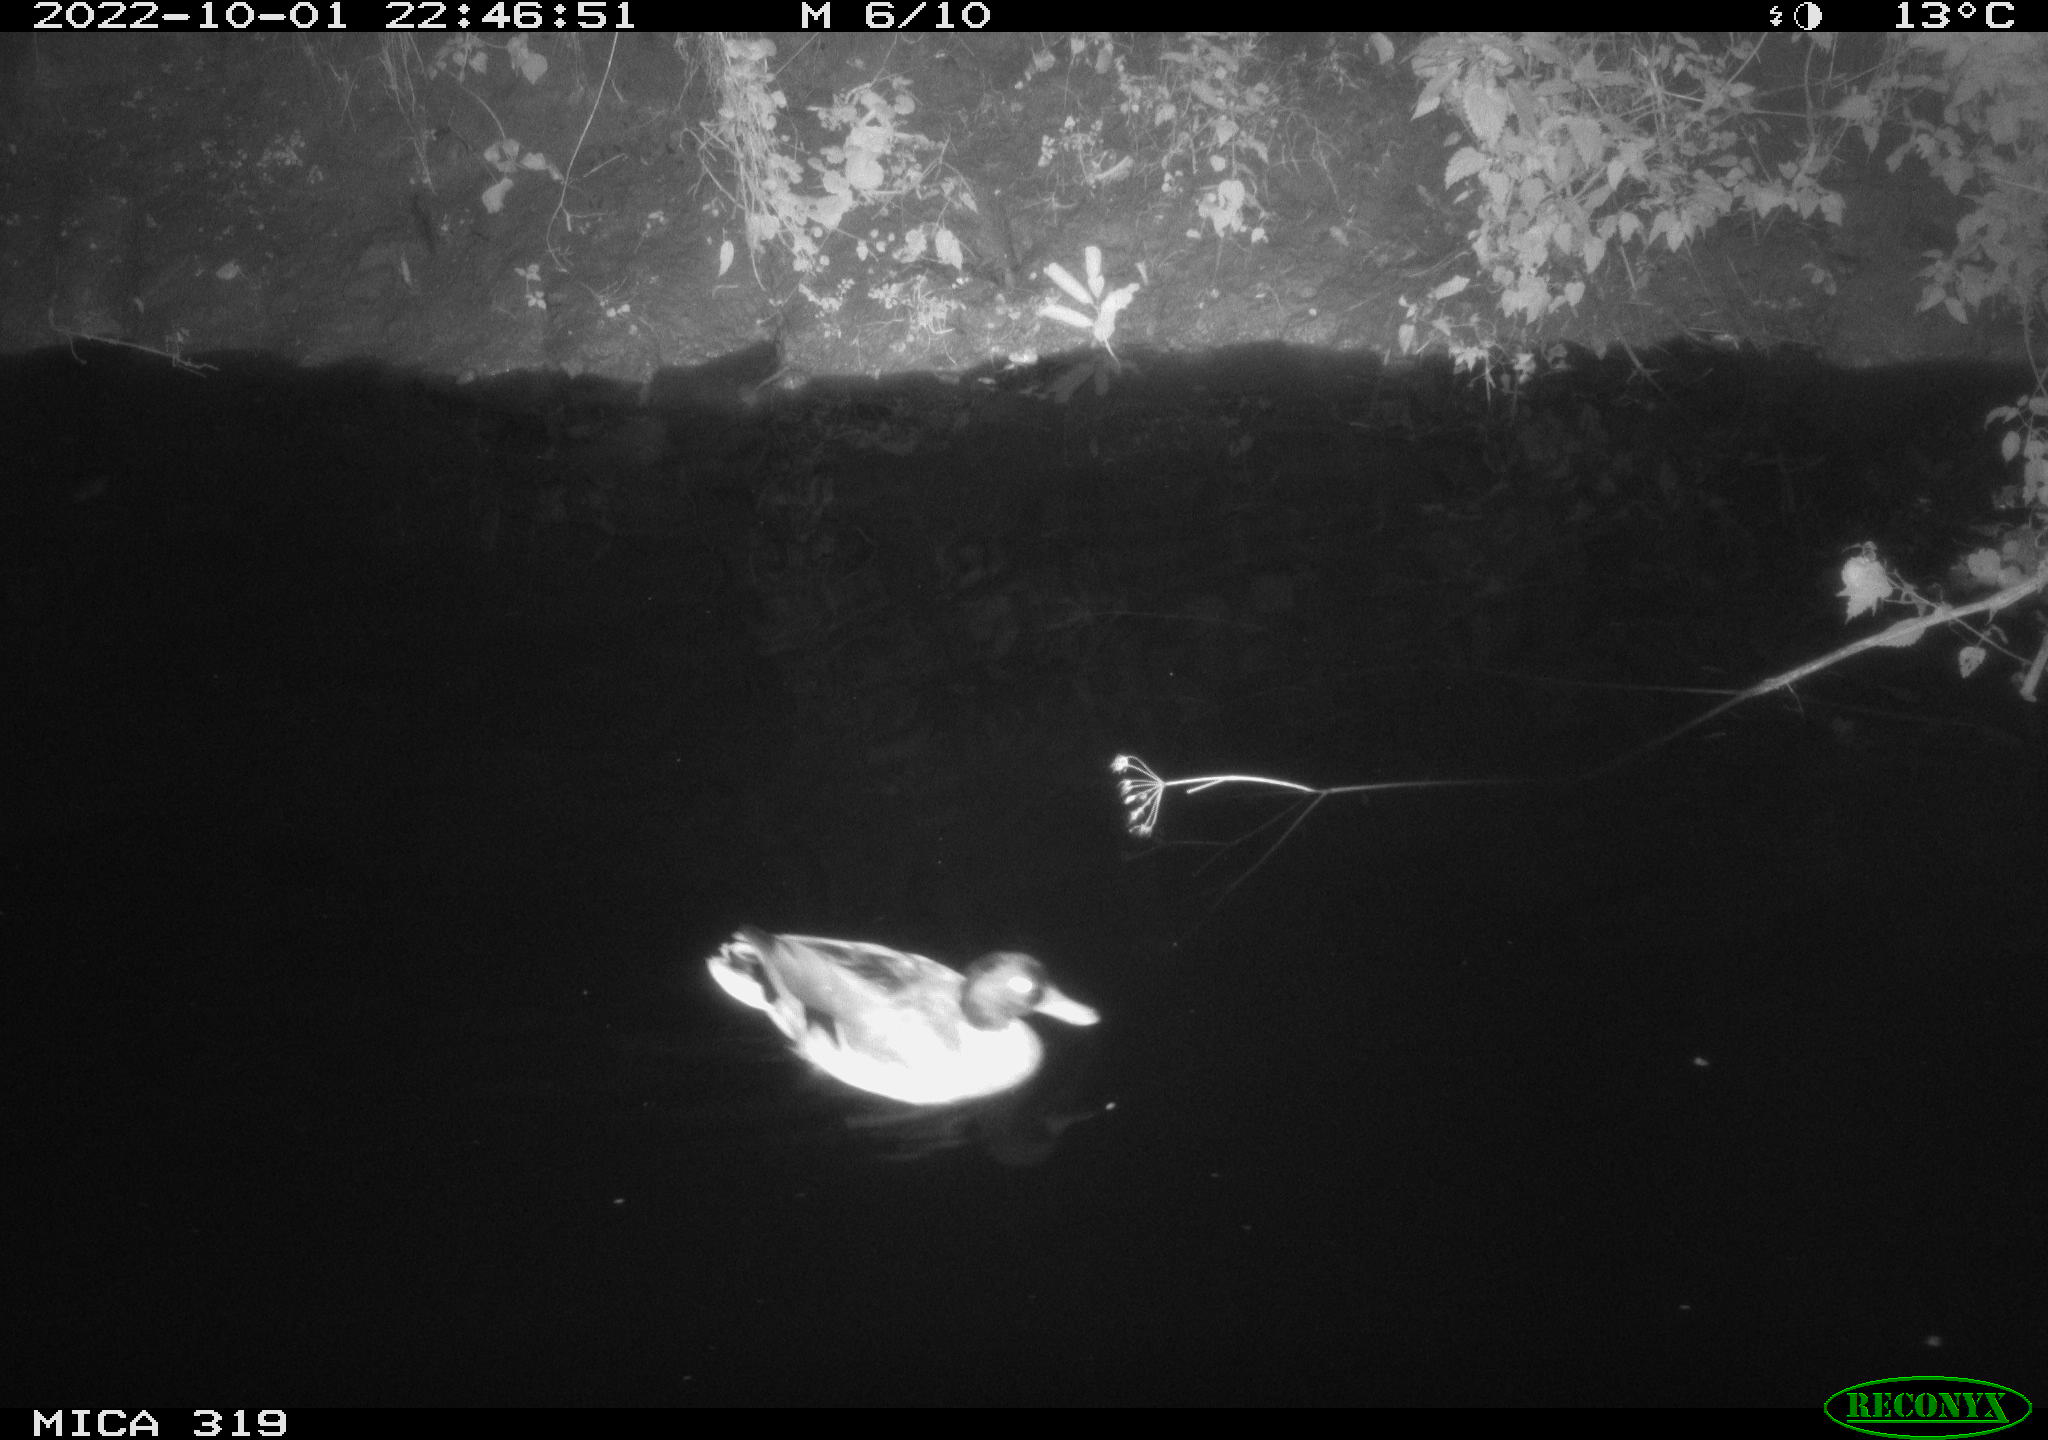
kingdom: Animalia
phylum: Chordata
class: Aves
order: Anseriformes
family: Anatidae
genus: Anas
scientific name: Anas
